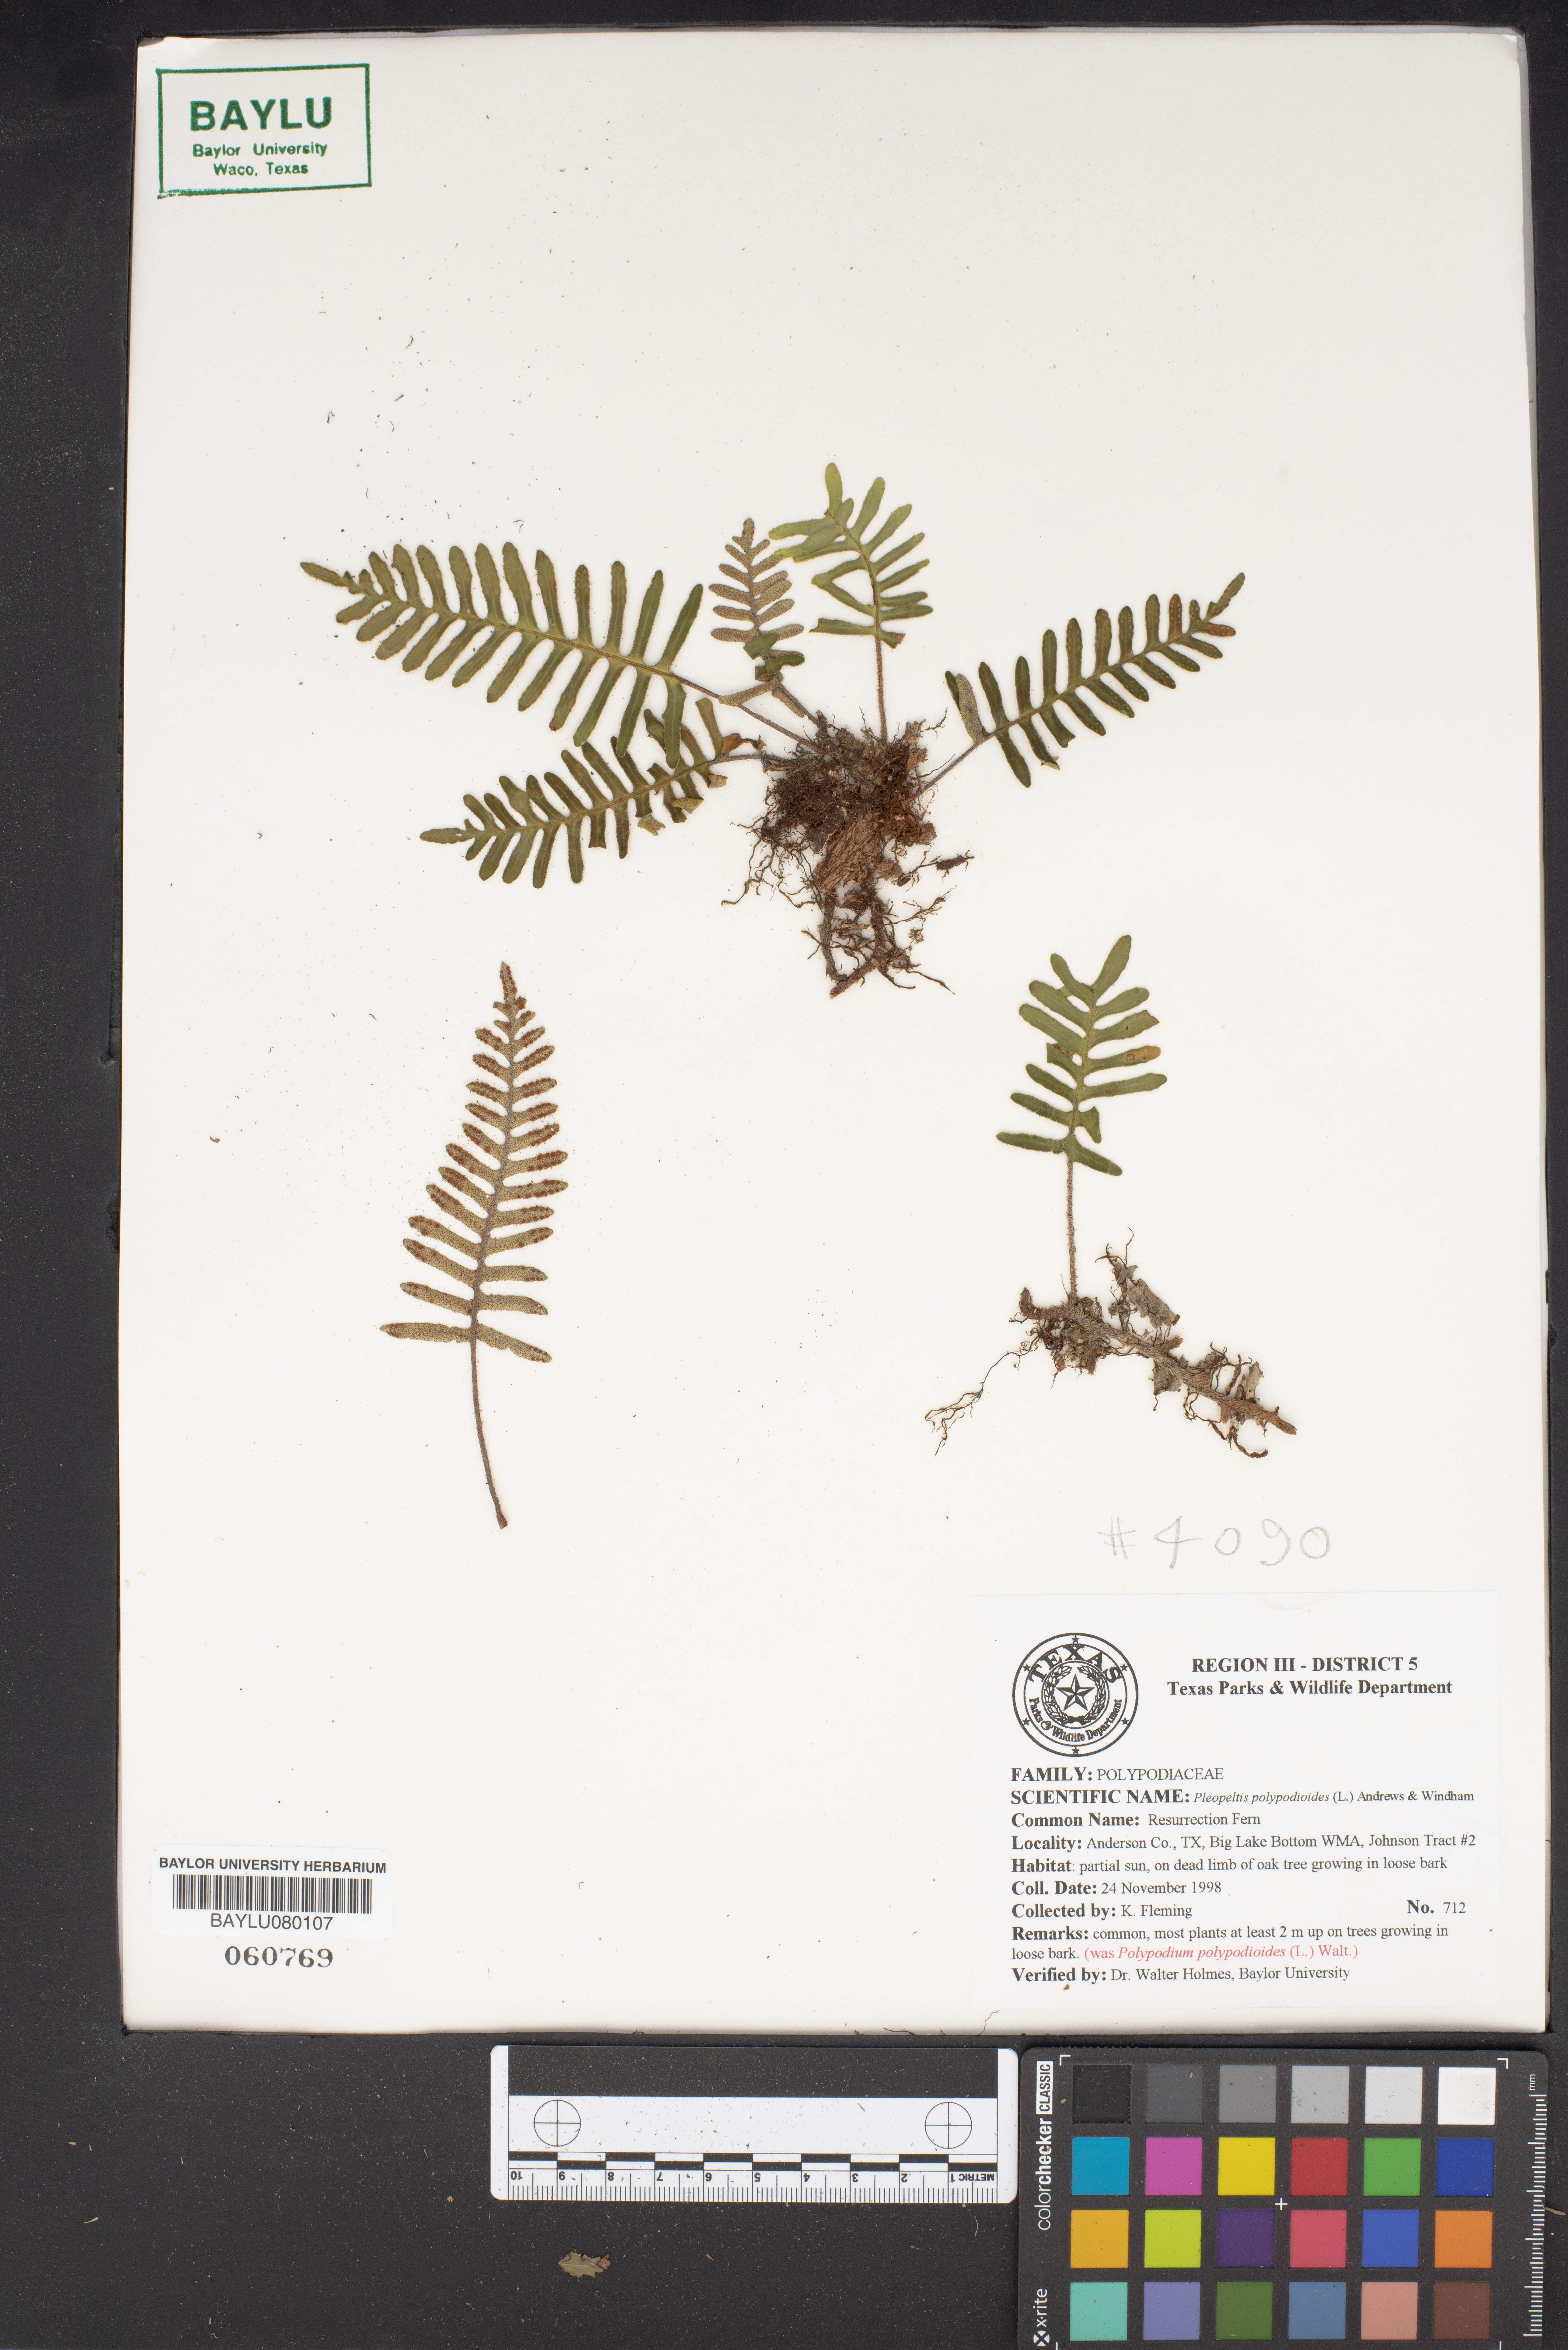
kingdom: Plantae
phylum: Tracheophyta
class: Polypodiopsida
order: Polypodiales
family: Polypodiaceae
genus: Pleopeltis
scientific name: Pleopeltis polypodioides
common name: Resurrection fern
